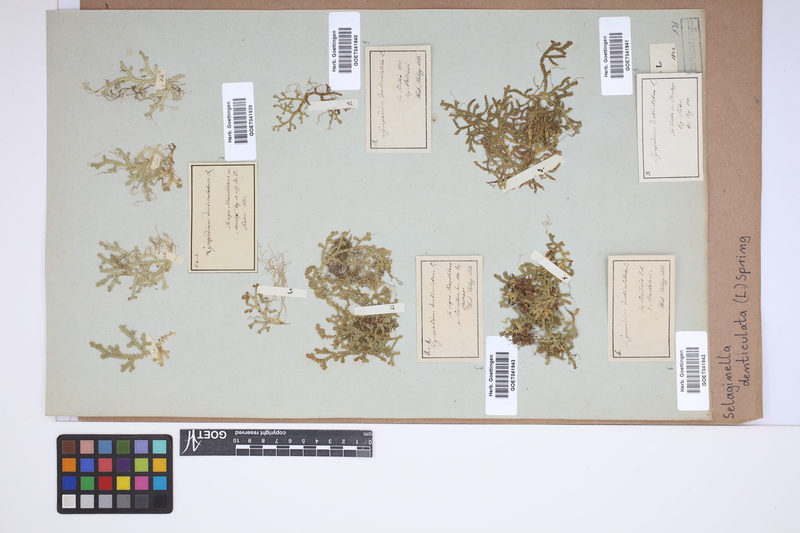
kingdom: Plantae
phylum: Tracheophyta
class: Lycopodiopsida
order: Selaginellales
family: Selaginellaceae
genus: Selaginella
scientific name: Selaginella denticulata
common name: Toothed-leaved clubmoss
